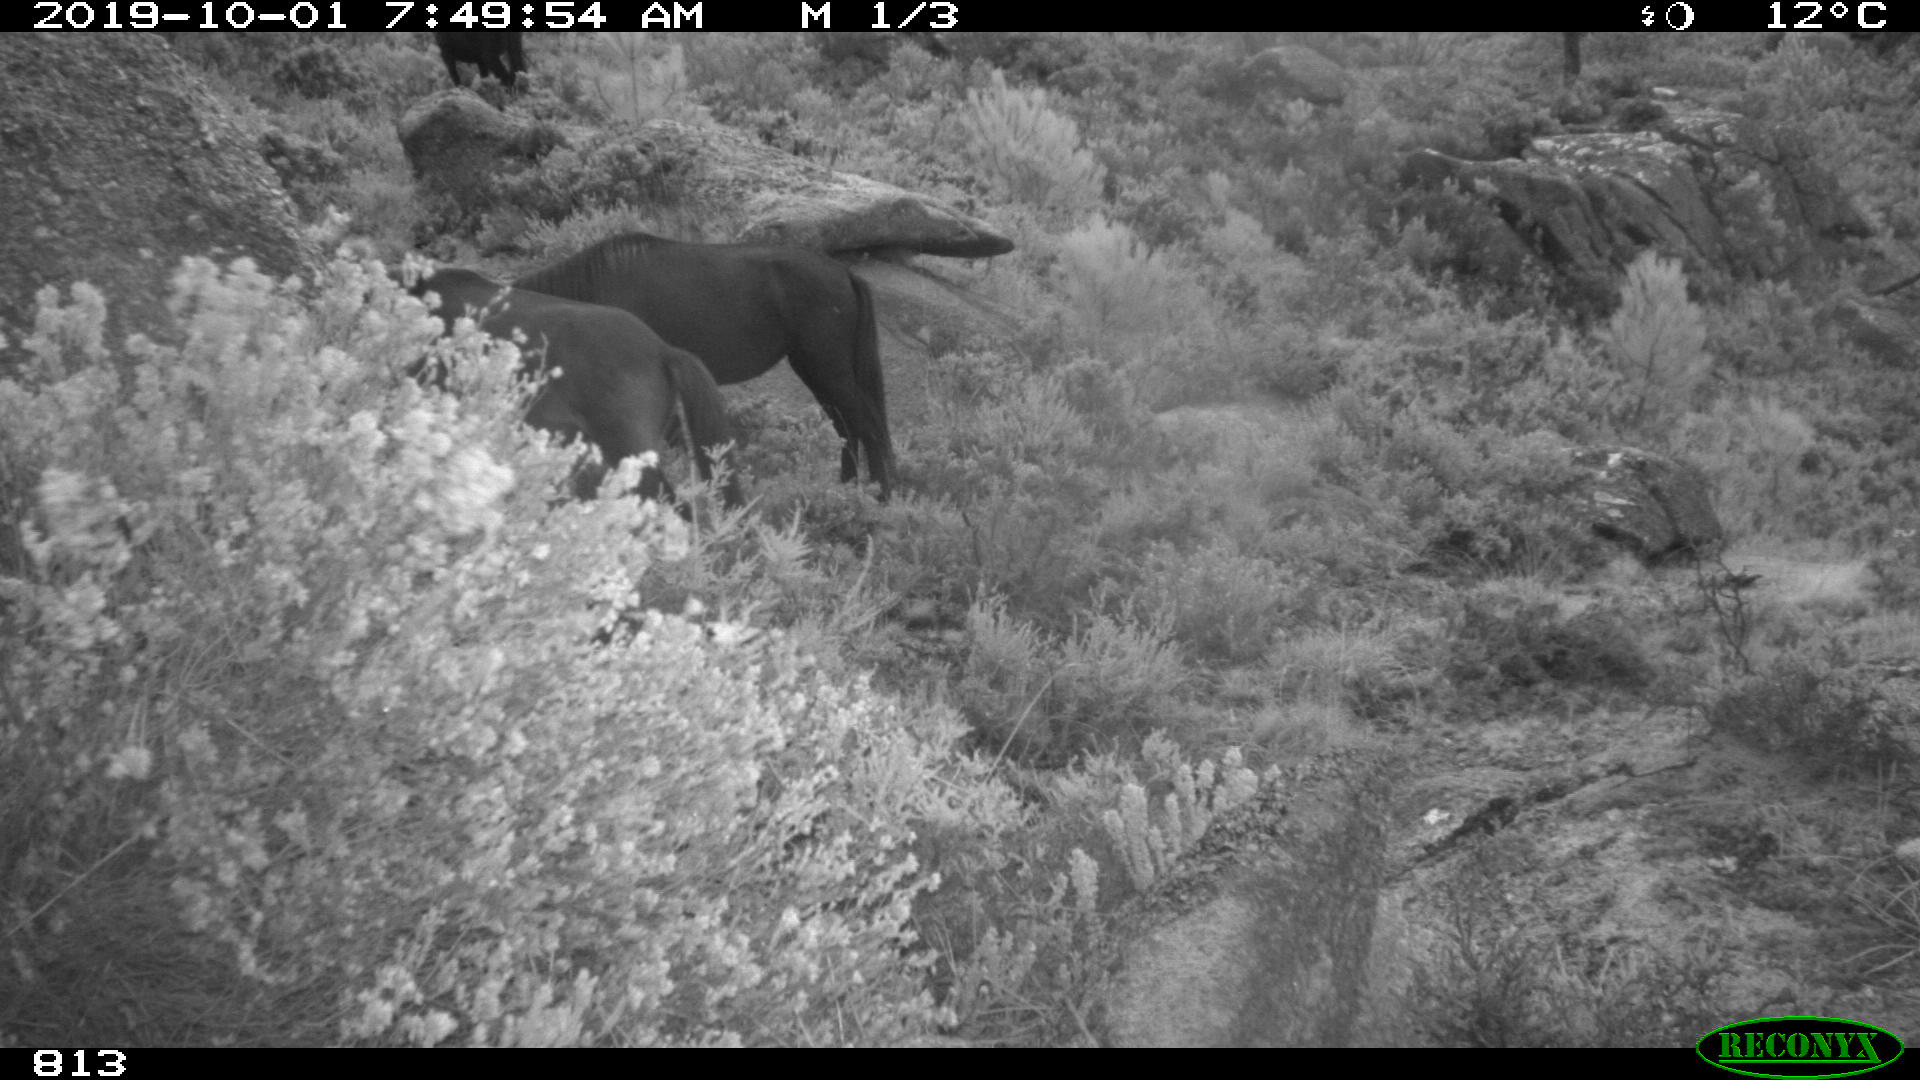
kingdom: Animalia
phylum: Chordata
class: Mammalia
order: Perissodactyla
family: Equidae
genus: Equus
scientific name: Equus caballus
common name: Horse
